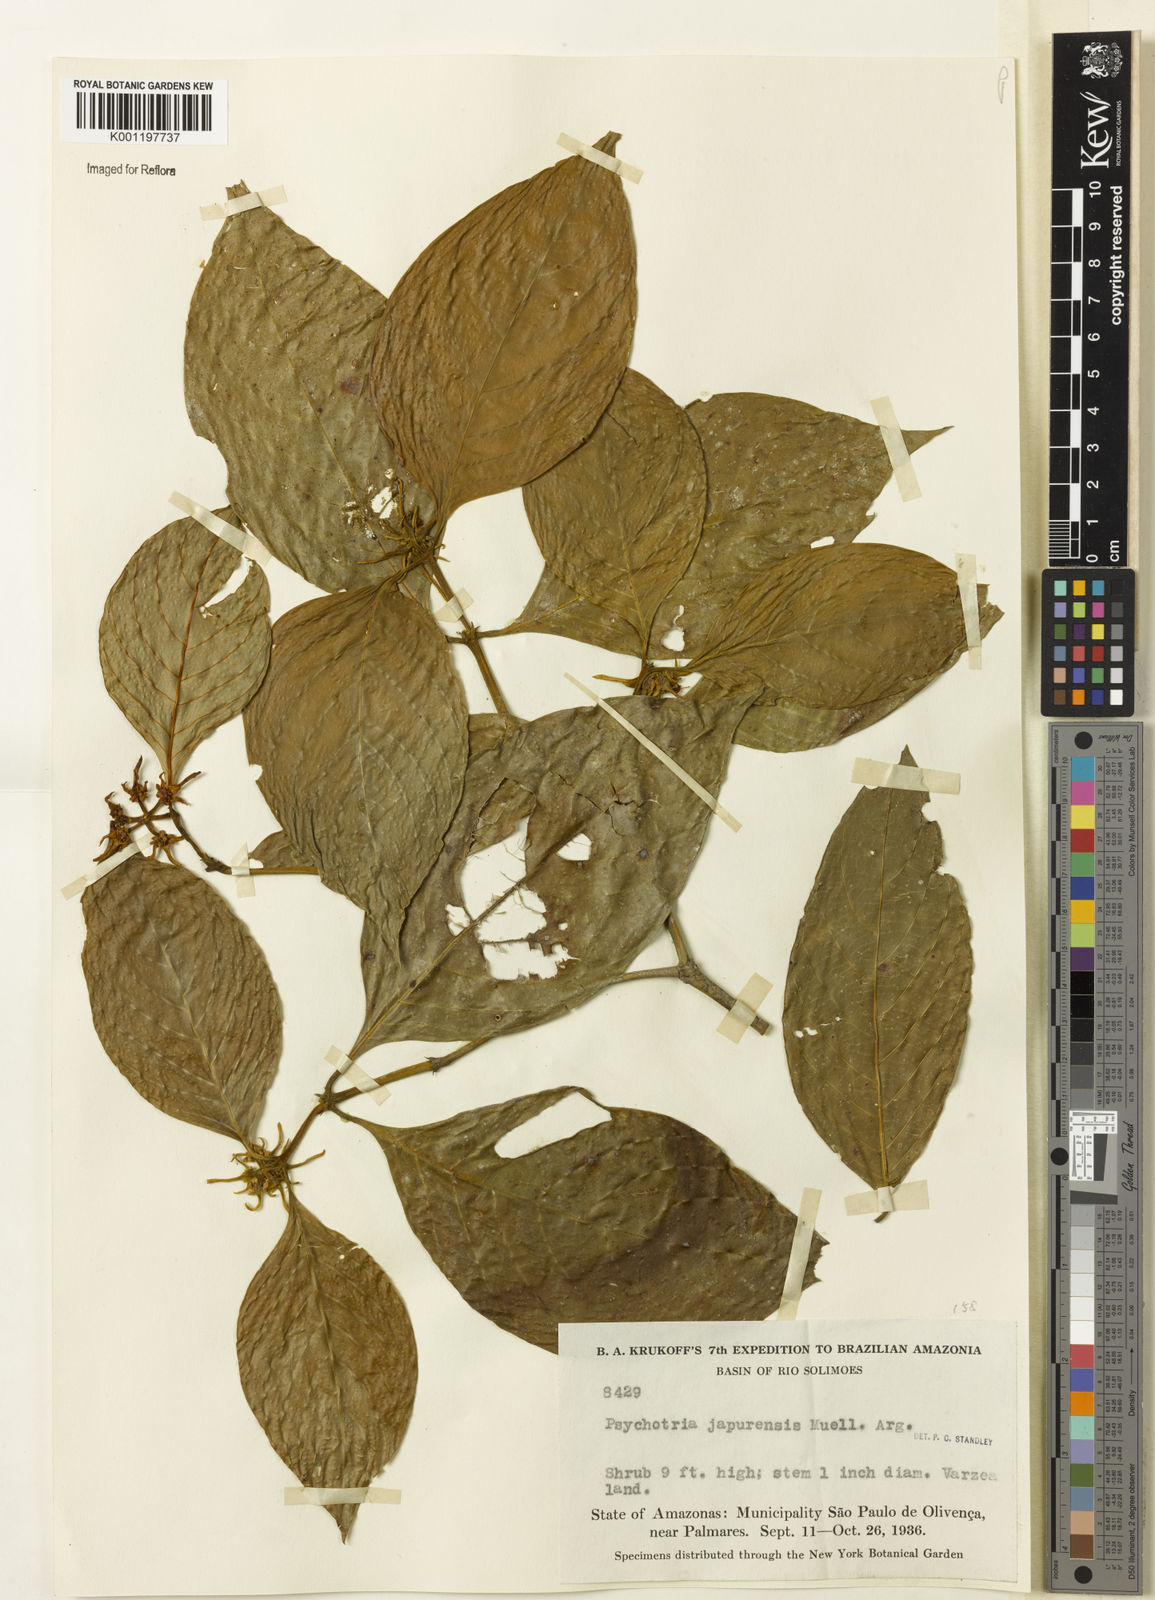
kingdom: Plantae
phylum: Tracheophyta
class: Magnoliopsida
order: Gentianales
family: Rubiaceae
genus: Psychotria
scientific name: Psychotria
